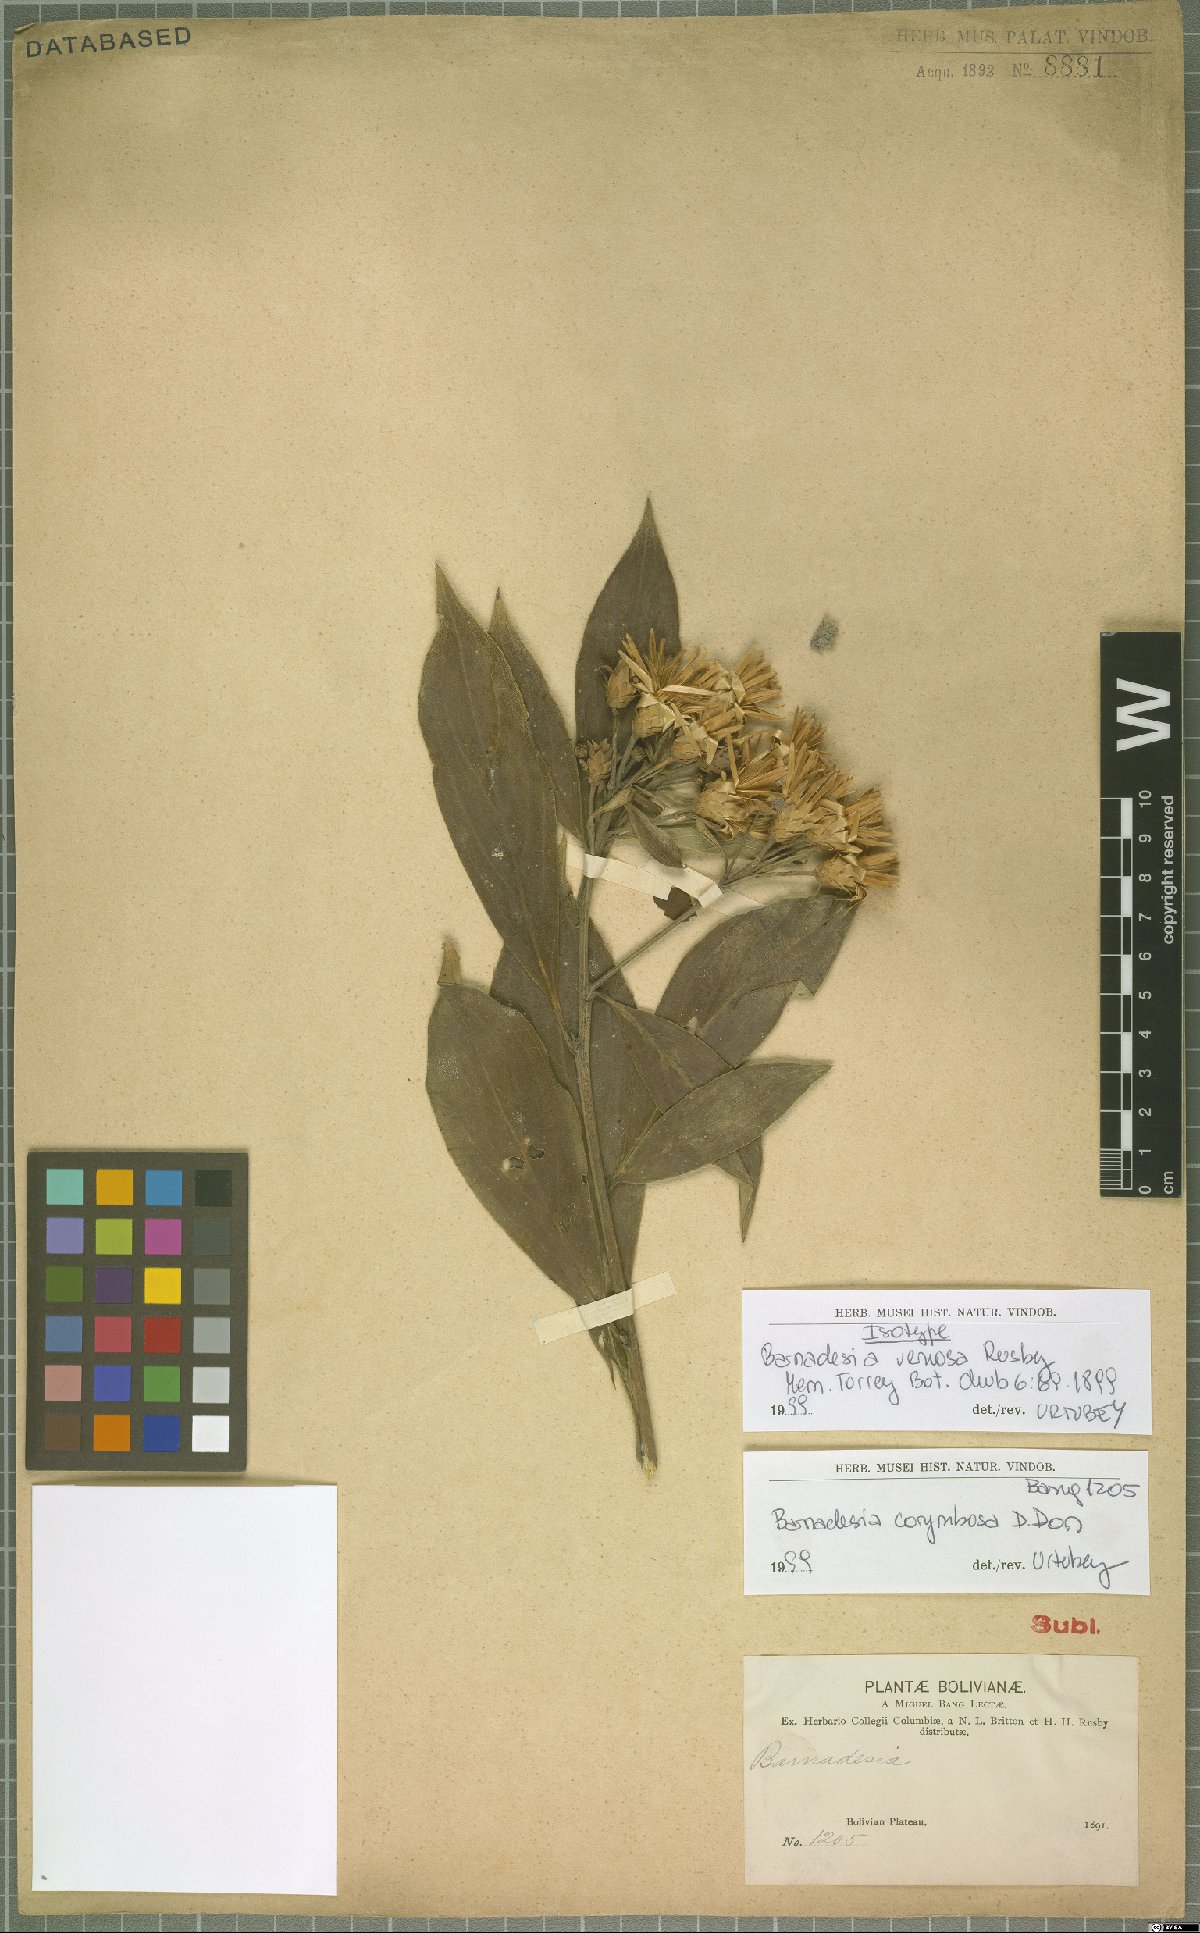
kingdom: Plantae
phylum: Tracheophyta
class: Magnoliopsida
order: Asterales
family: Asteraceae
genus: Barnadesia
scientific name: Barnadesia corymbosa
